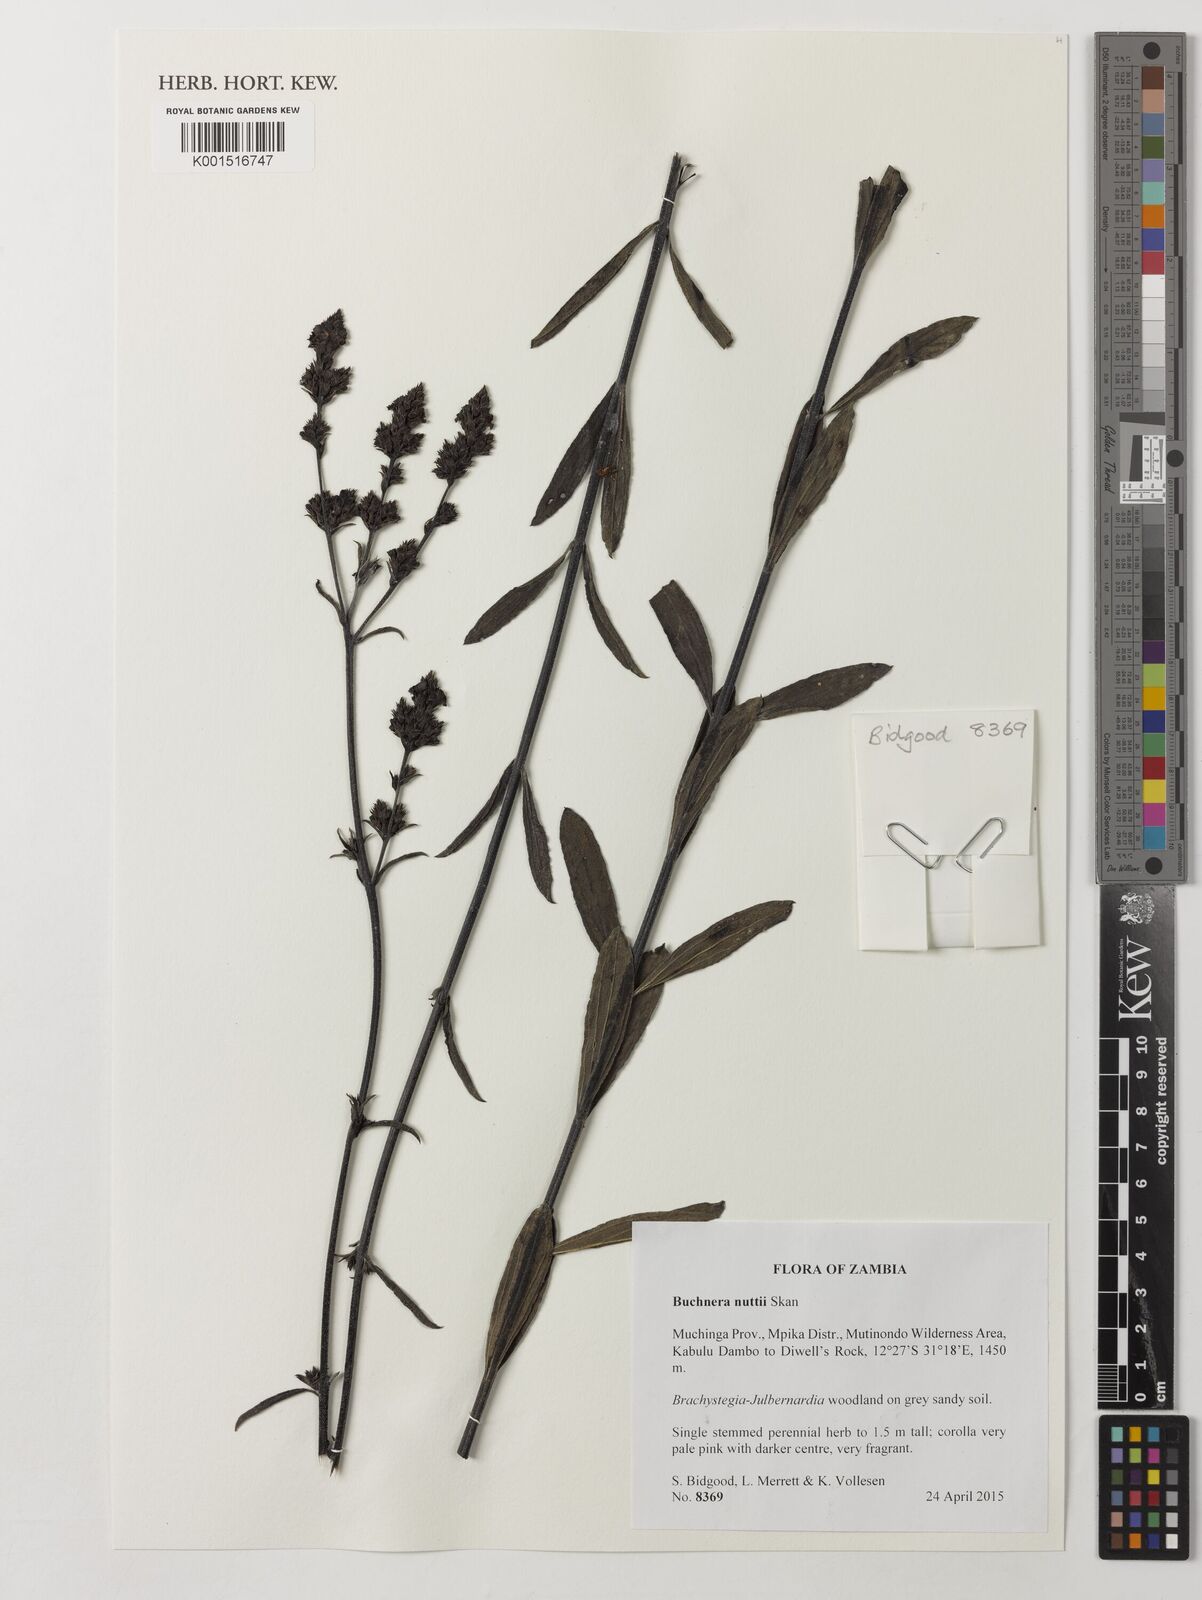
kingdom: Plantae
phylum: Tracheophyta
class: Magnoliopsida
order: Lamiales
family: Orobanchaceae
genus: Buchnera
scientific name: Buchnera nuttii
